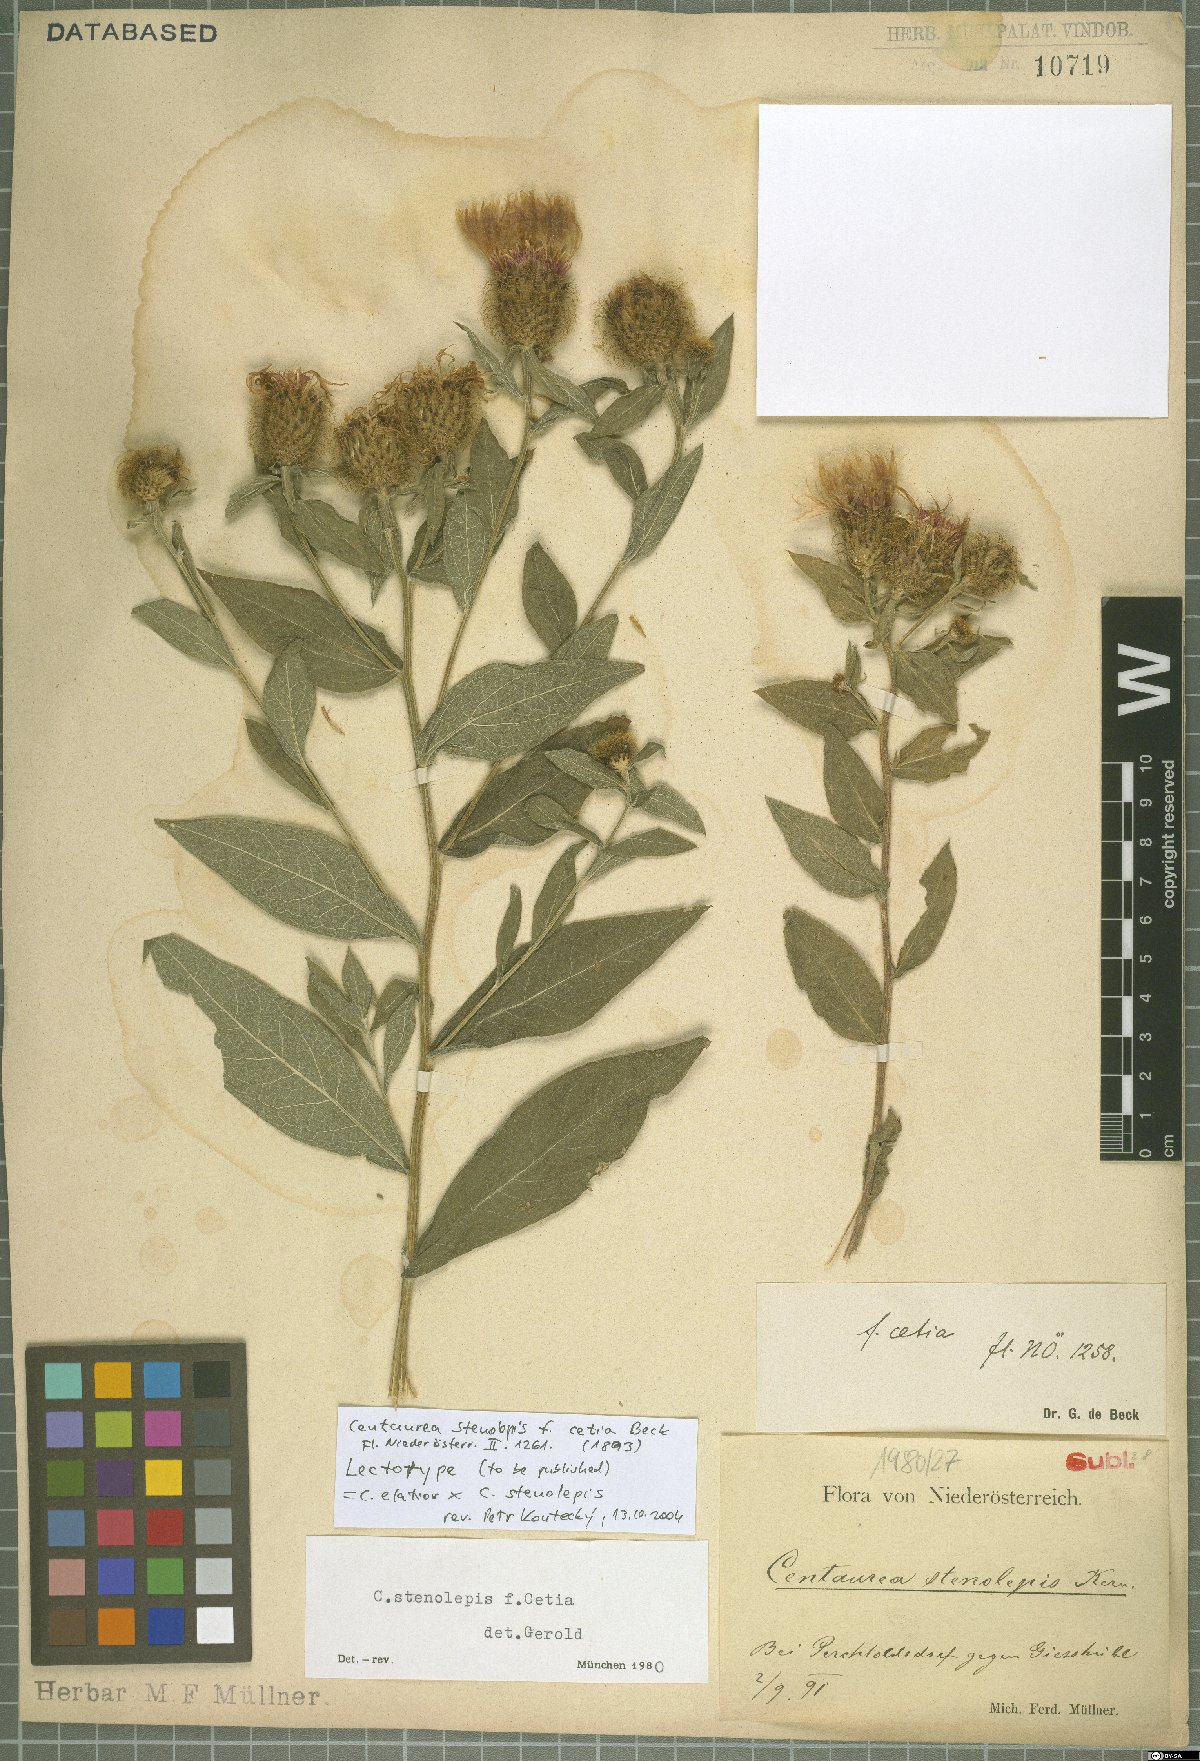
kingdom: Plantae
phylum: Tracheophyta
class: Magnoliopsida
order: Asterales
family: Asteraceae
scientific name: Asteraceae
